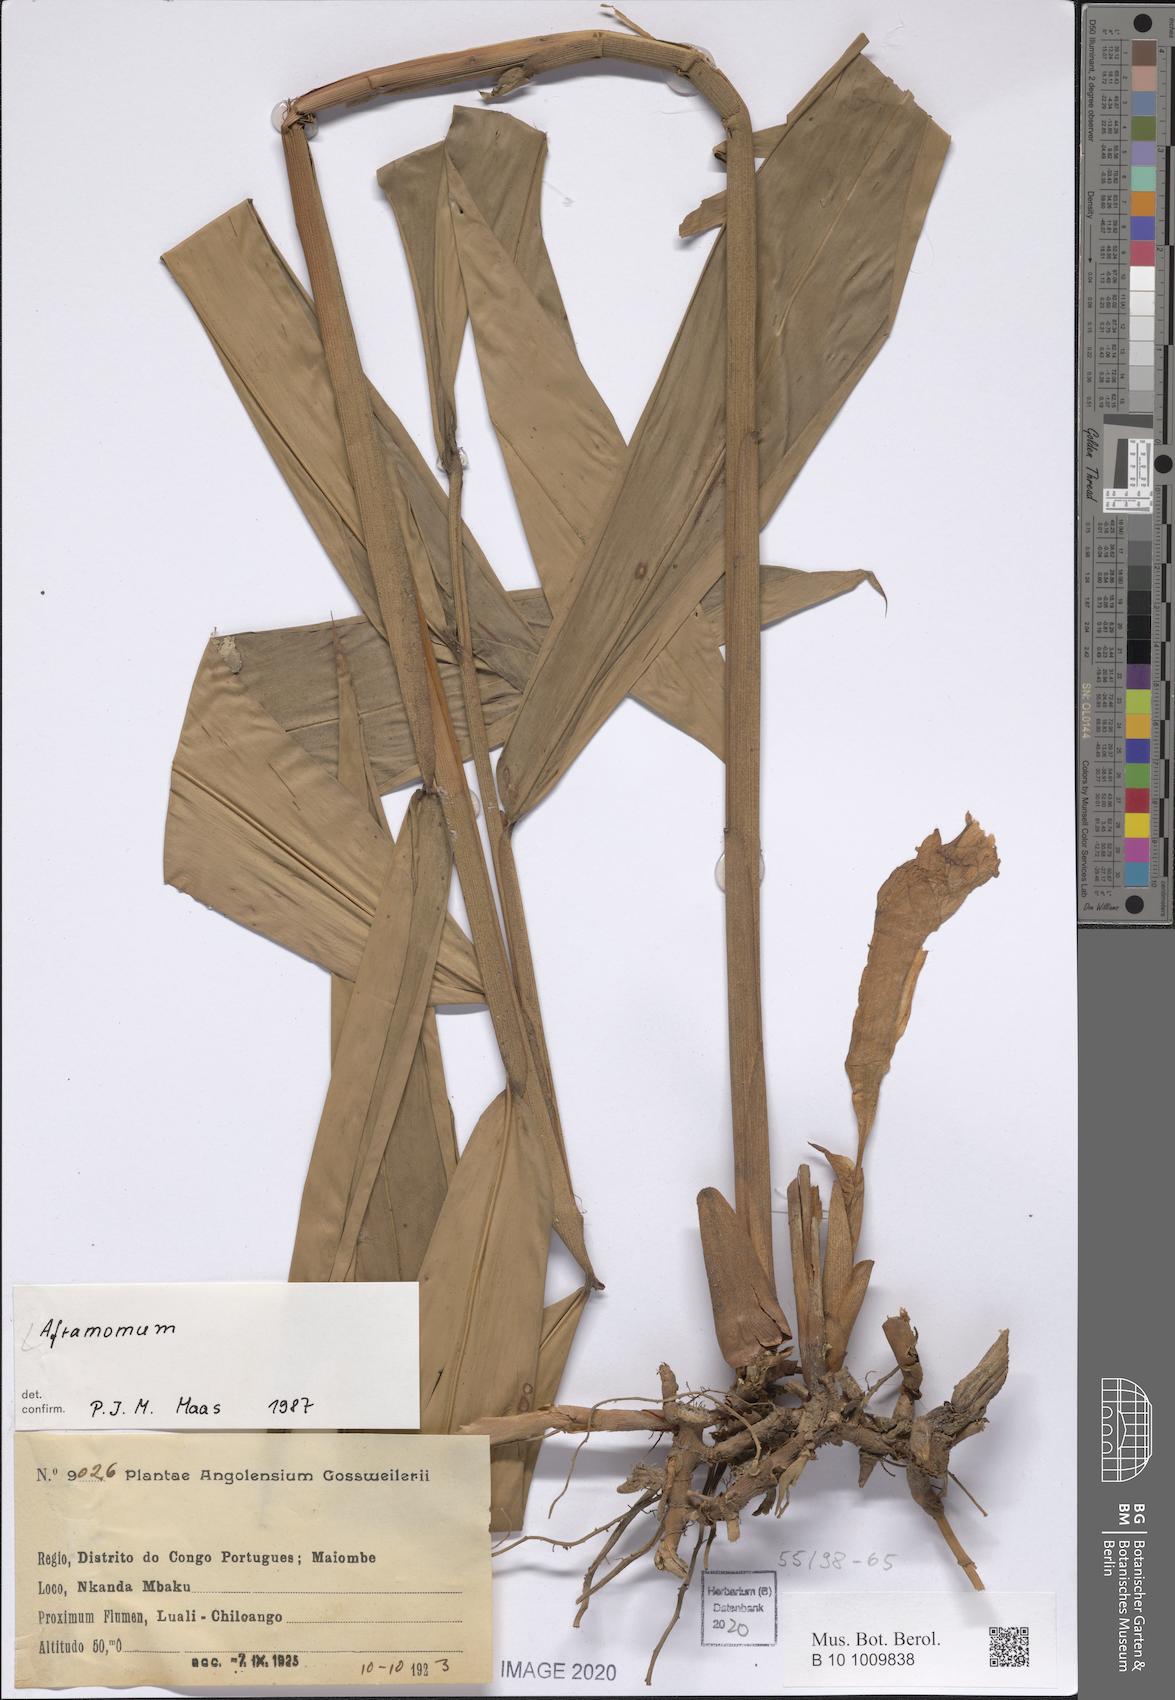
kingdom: Plantae
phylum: Tracheophyta
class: Liliopsida
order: Zingiberales
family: Zingiberaceae
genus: Aframomum
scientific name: Aframomum
